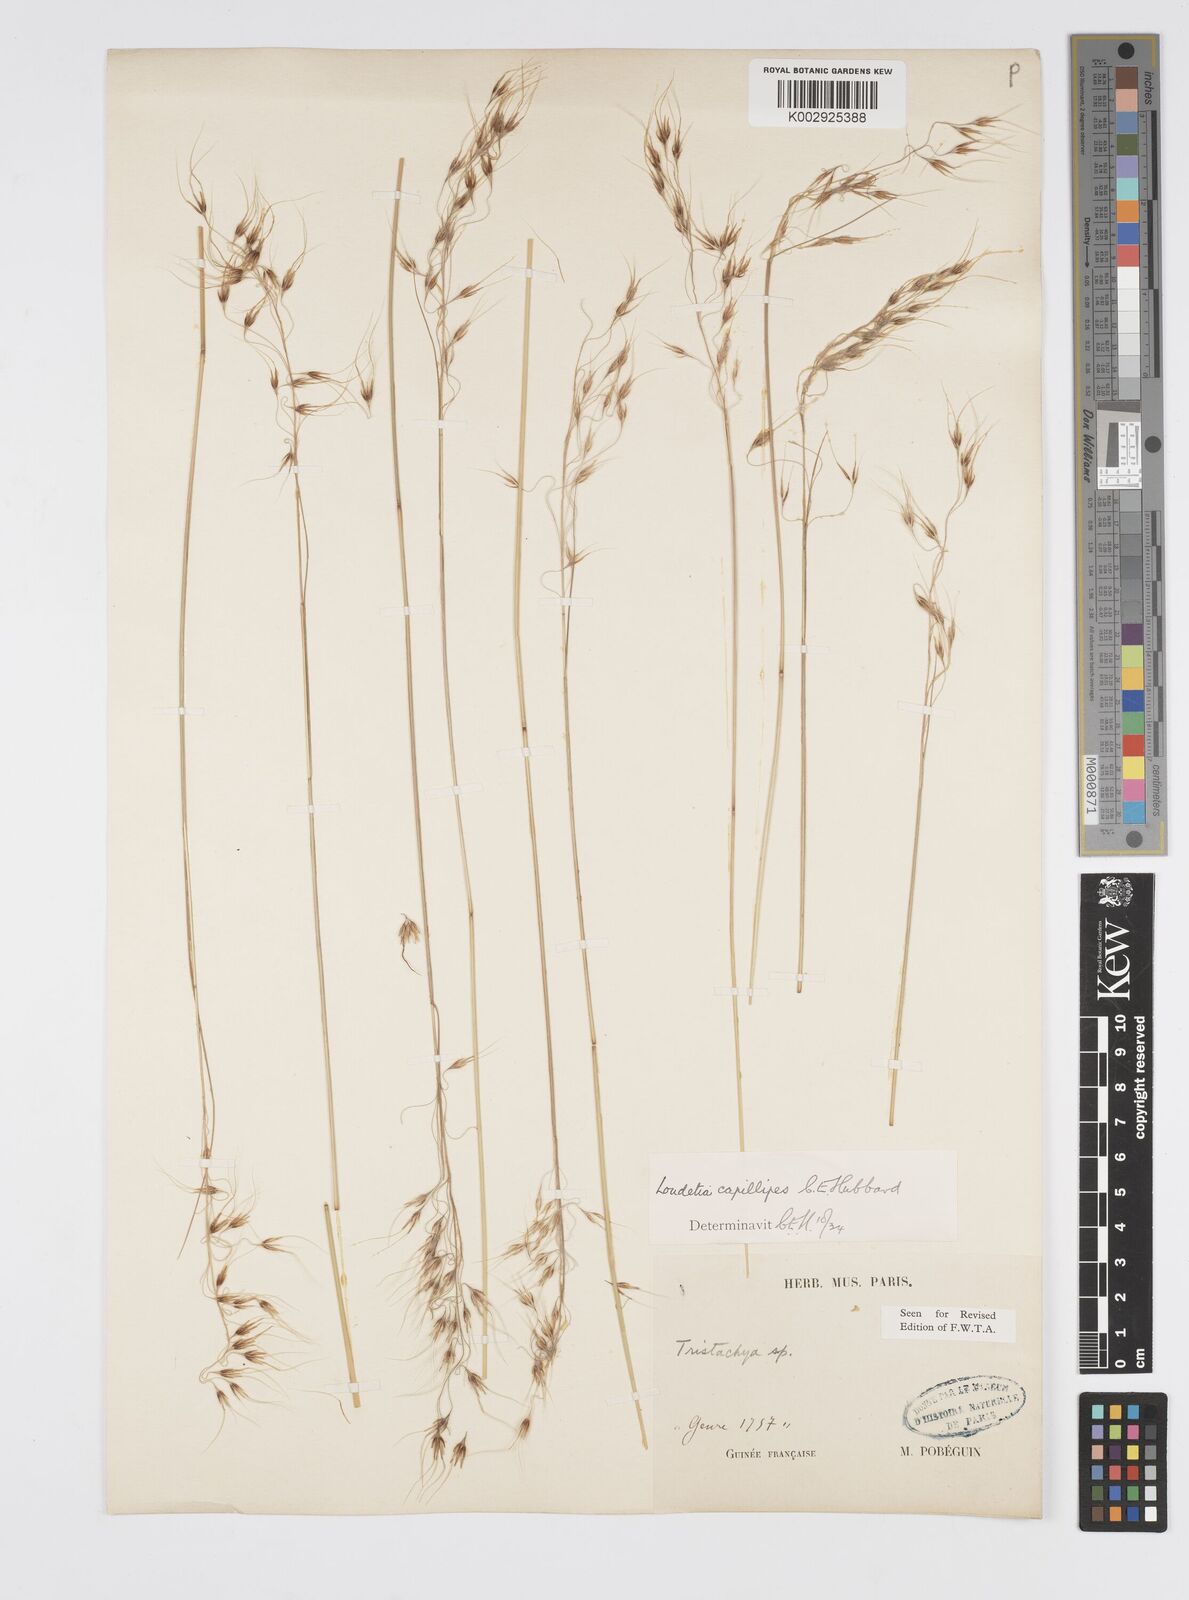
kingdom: Plantae
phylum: Tracheophyta
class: Liliopsida
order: Poales
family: Poaceae
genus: Loudetiopsis
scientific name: Loudetiopsis capillipes
